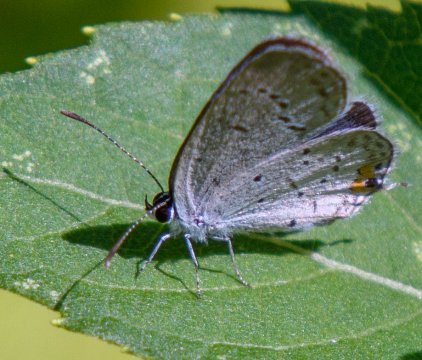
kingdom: Animalia
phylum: Arthropoda
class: Insecta
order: Lepidoptera
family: Lycaenidae
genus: Elkalyce
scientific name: Elkalyce comyntas
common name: Eastern Tailed-Blue
